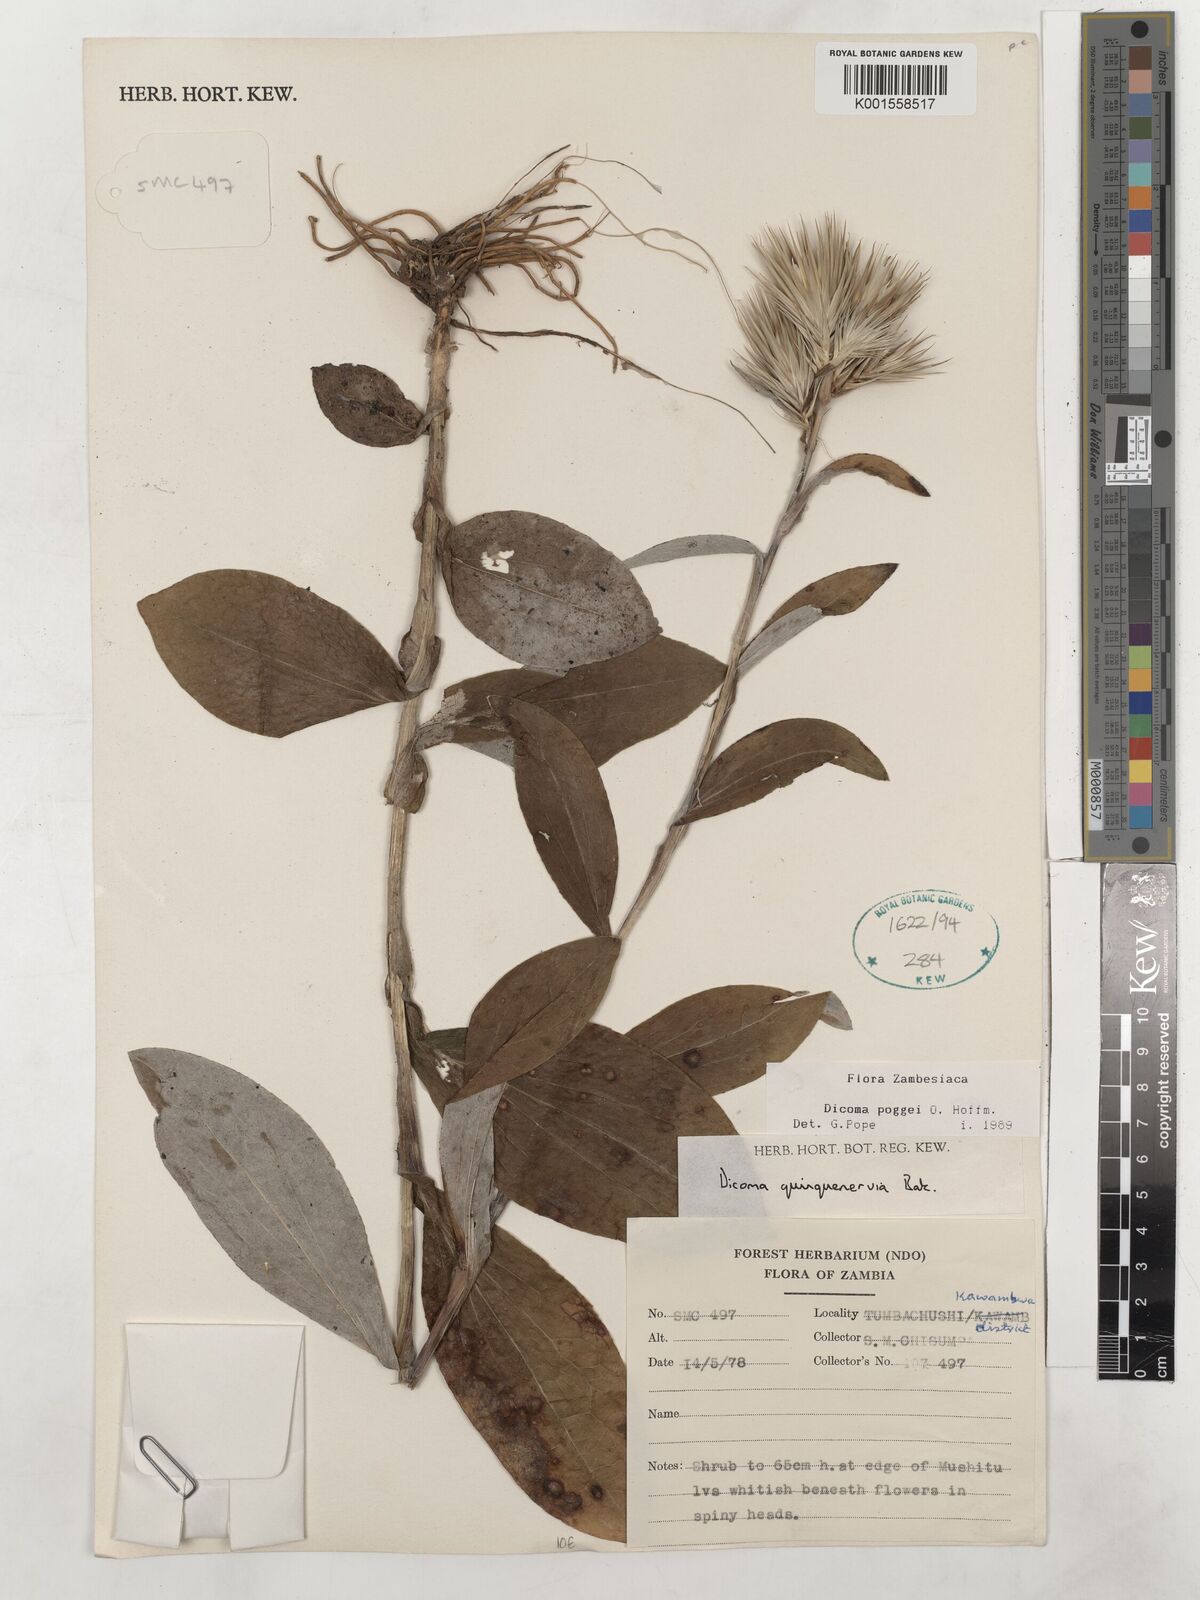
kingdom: Plantae
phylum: Tracheophyta
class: Magnoliopsida
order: Asterales
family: Asteraceae
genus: Macledium
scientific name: Macledium poggei
